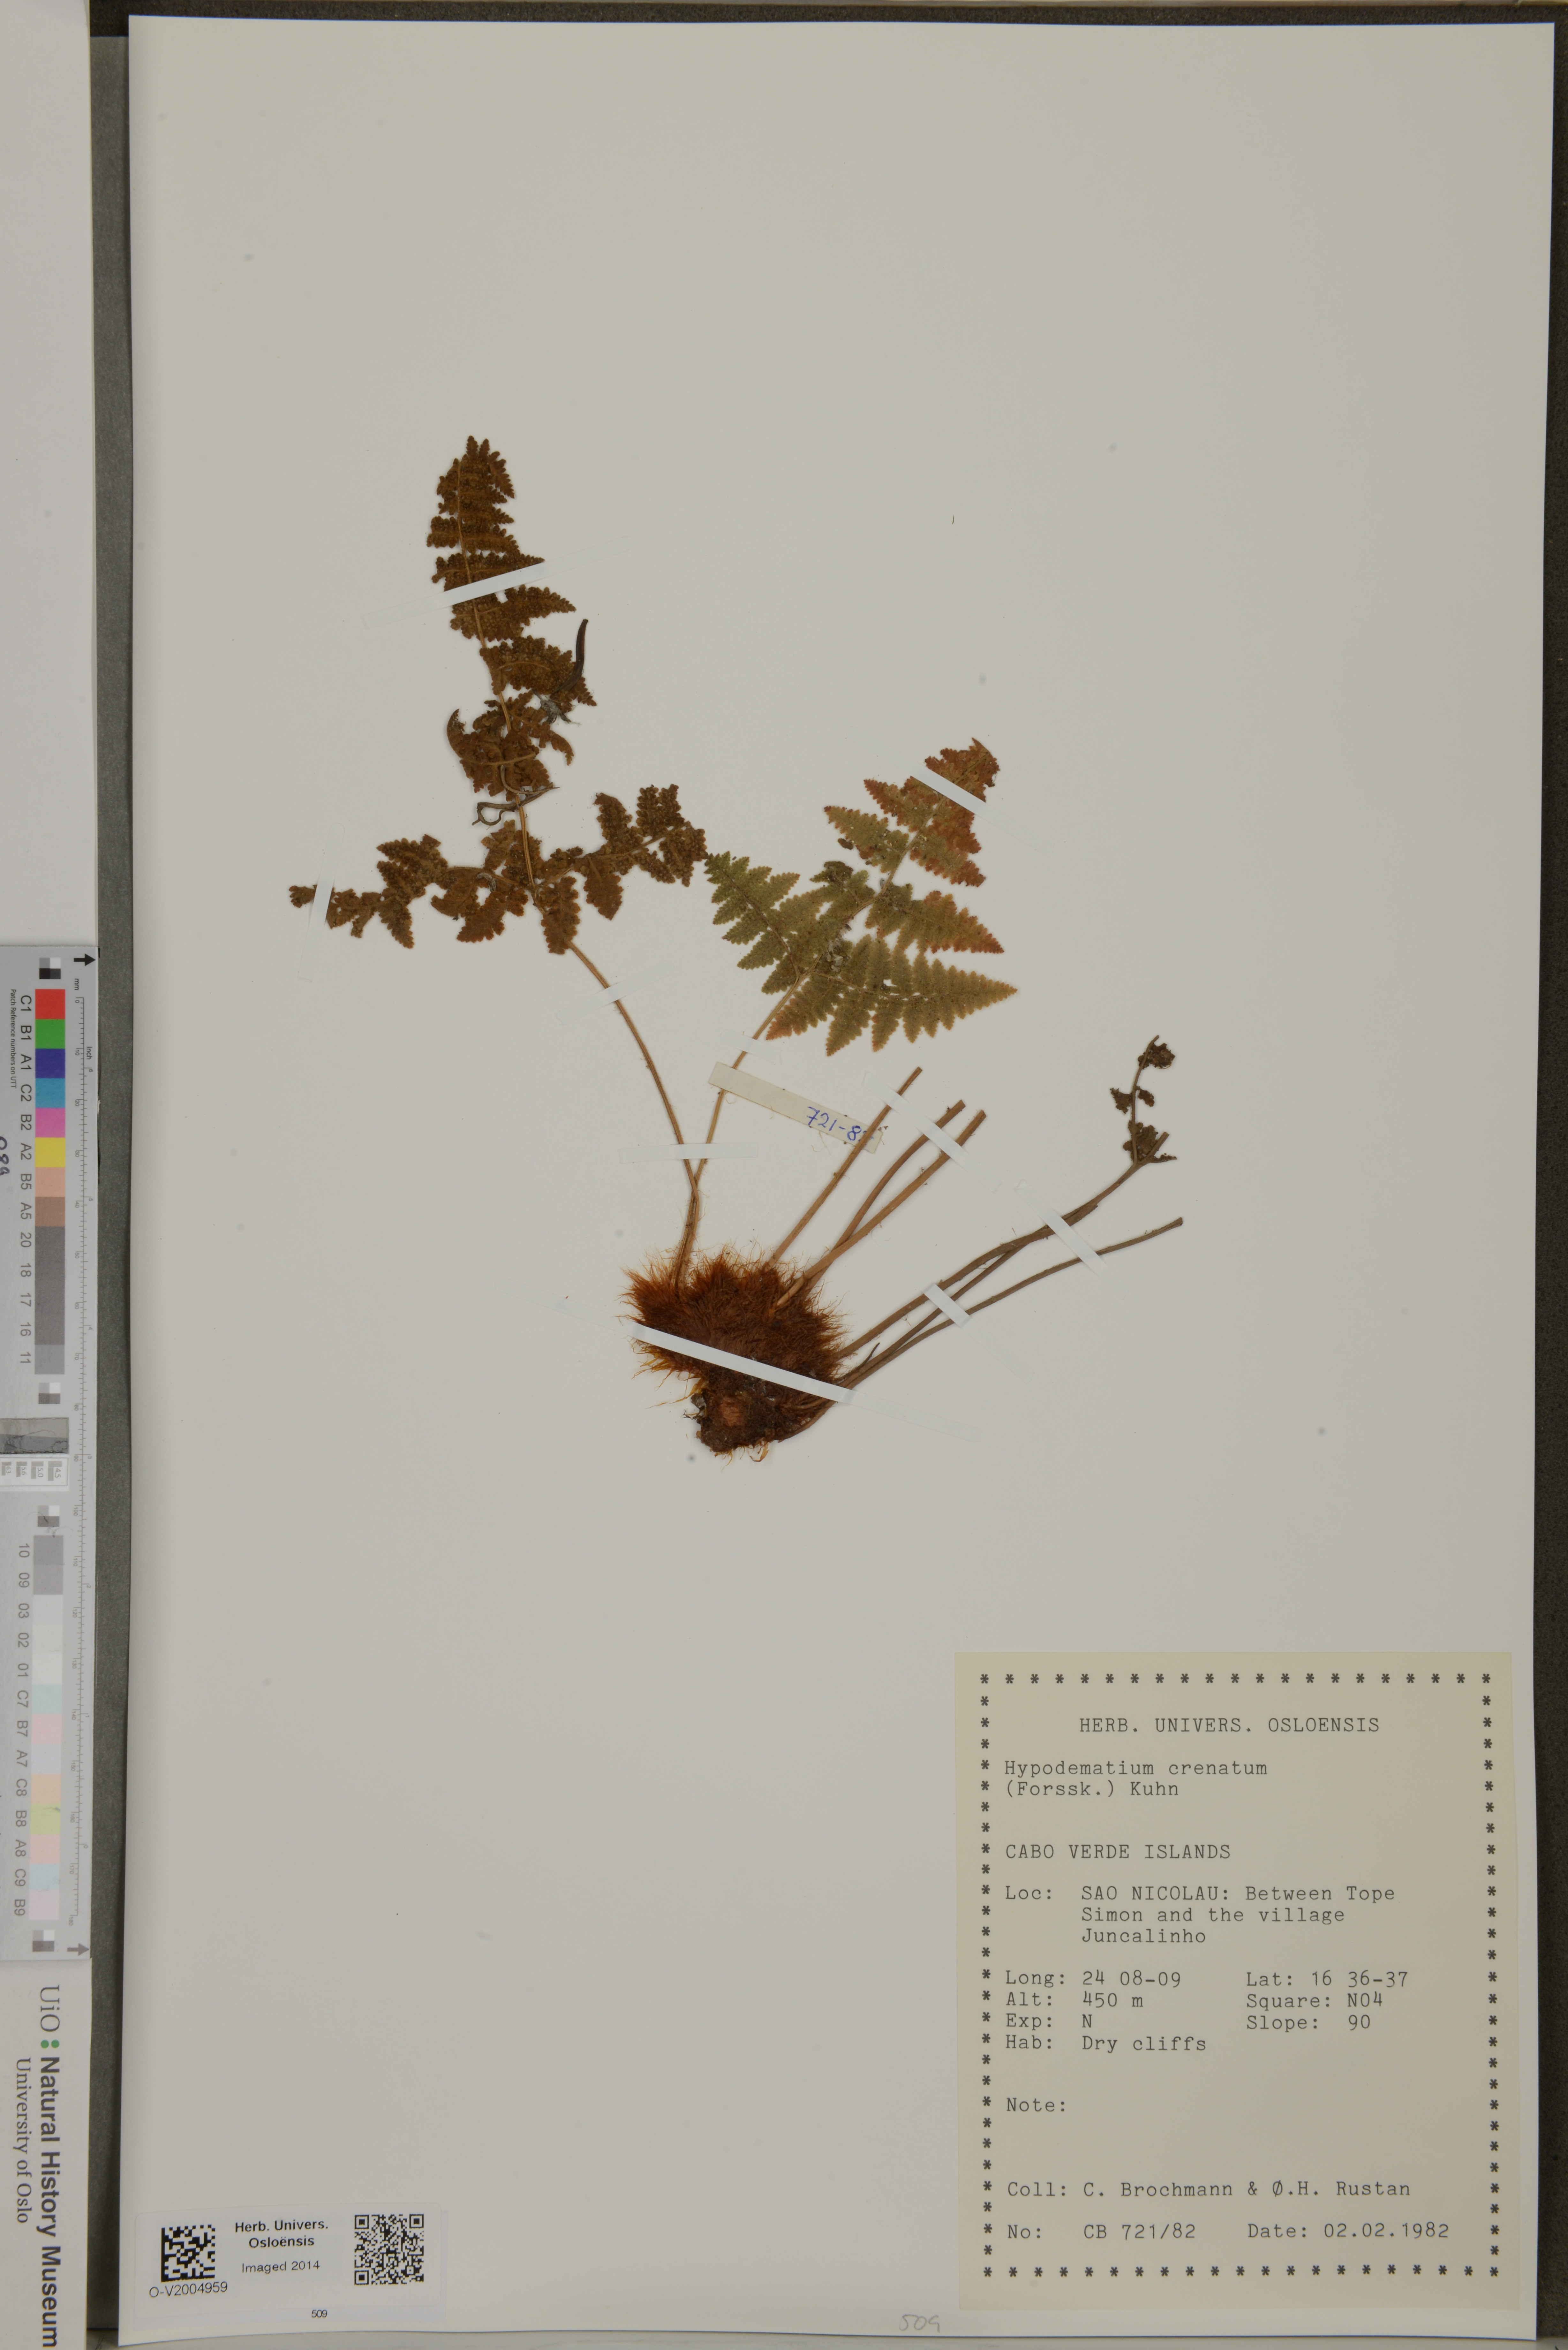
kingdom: Plantae
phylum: Tracheophyta
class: Polypodiopsida
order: Polypodiales
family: Hypodematiaceae
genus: Hypodematium
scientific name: Hypodematium chrysolepis
